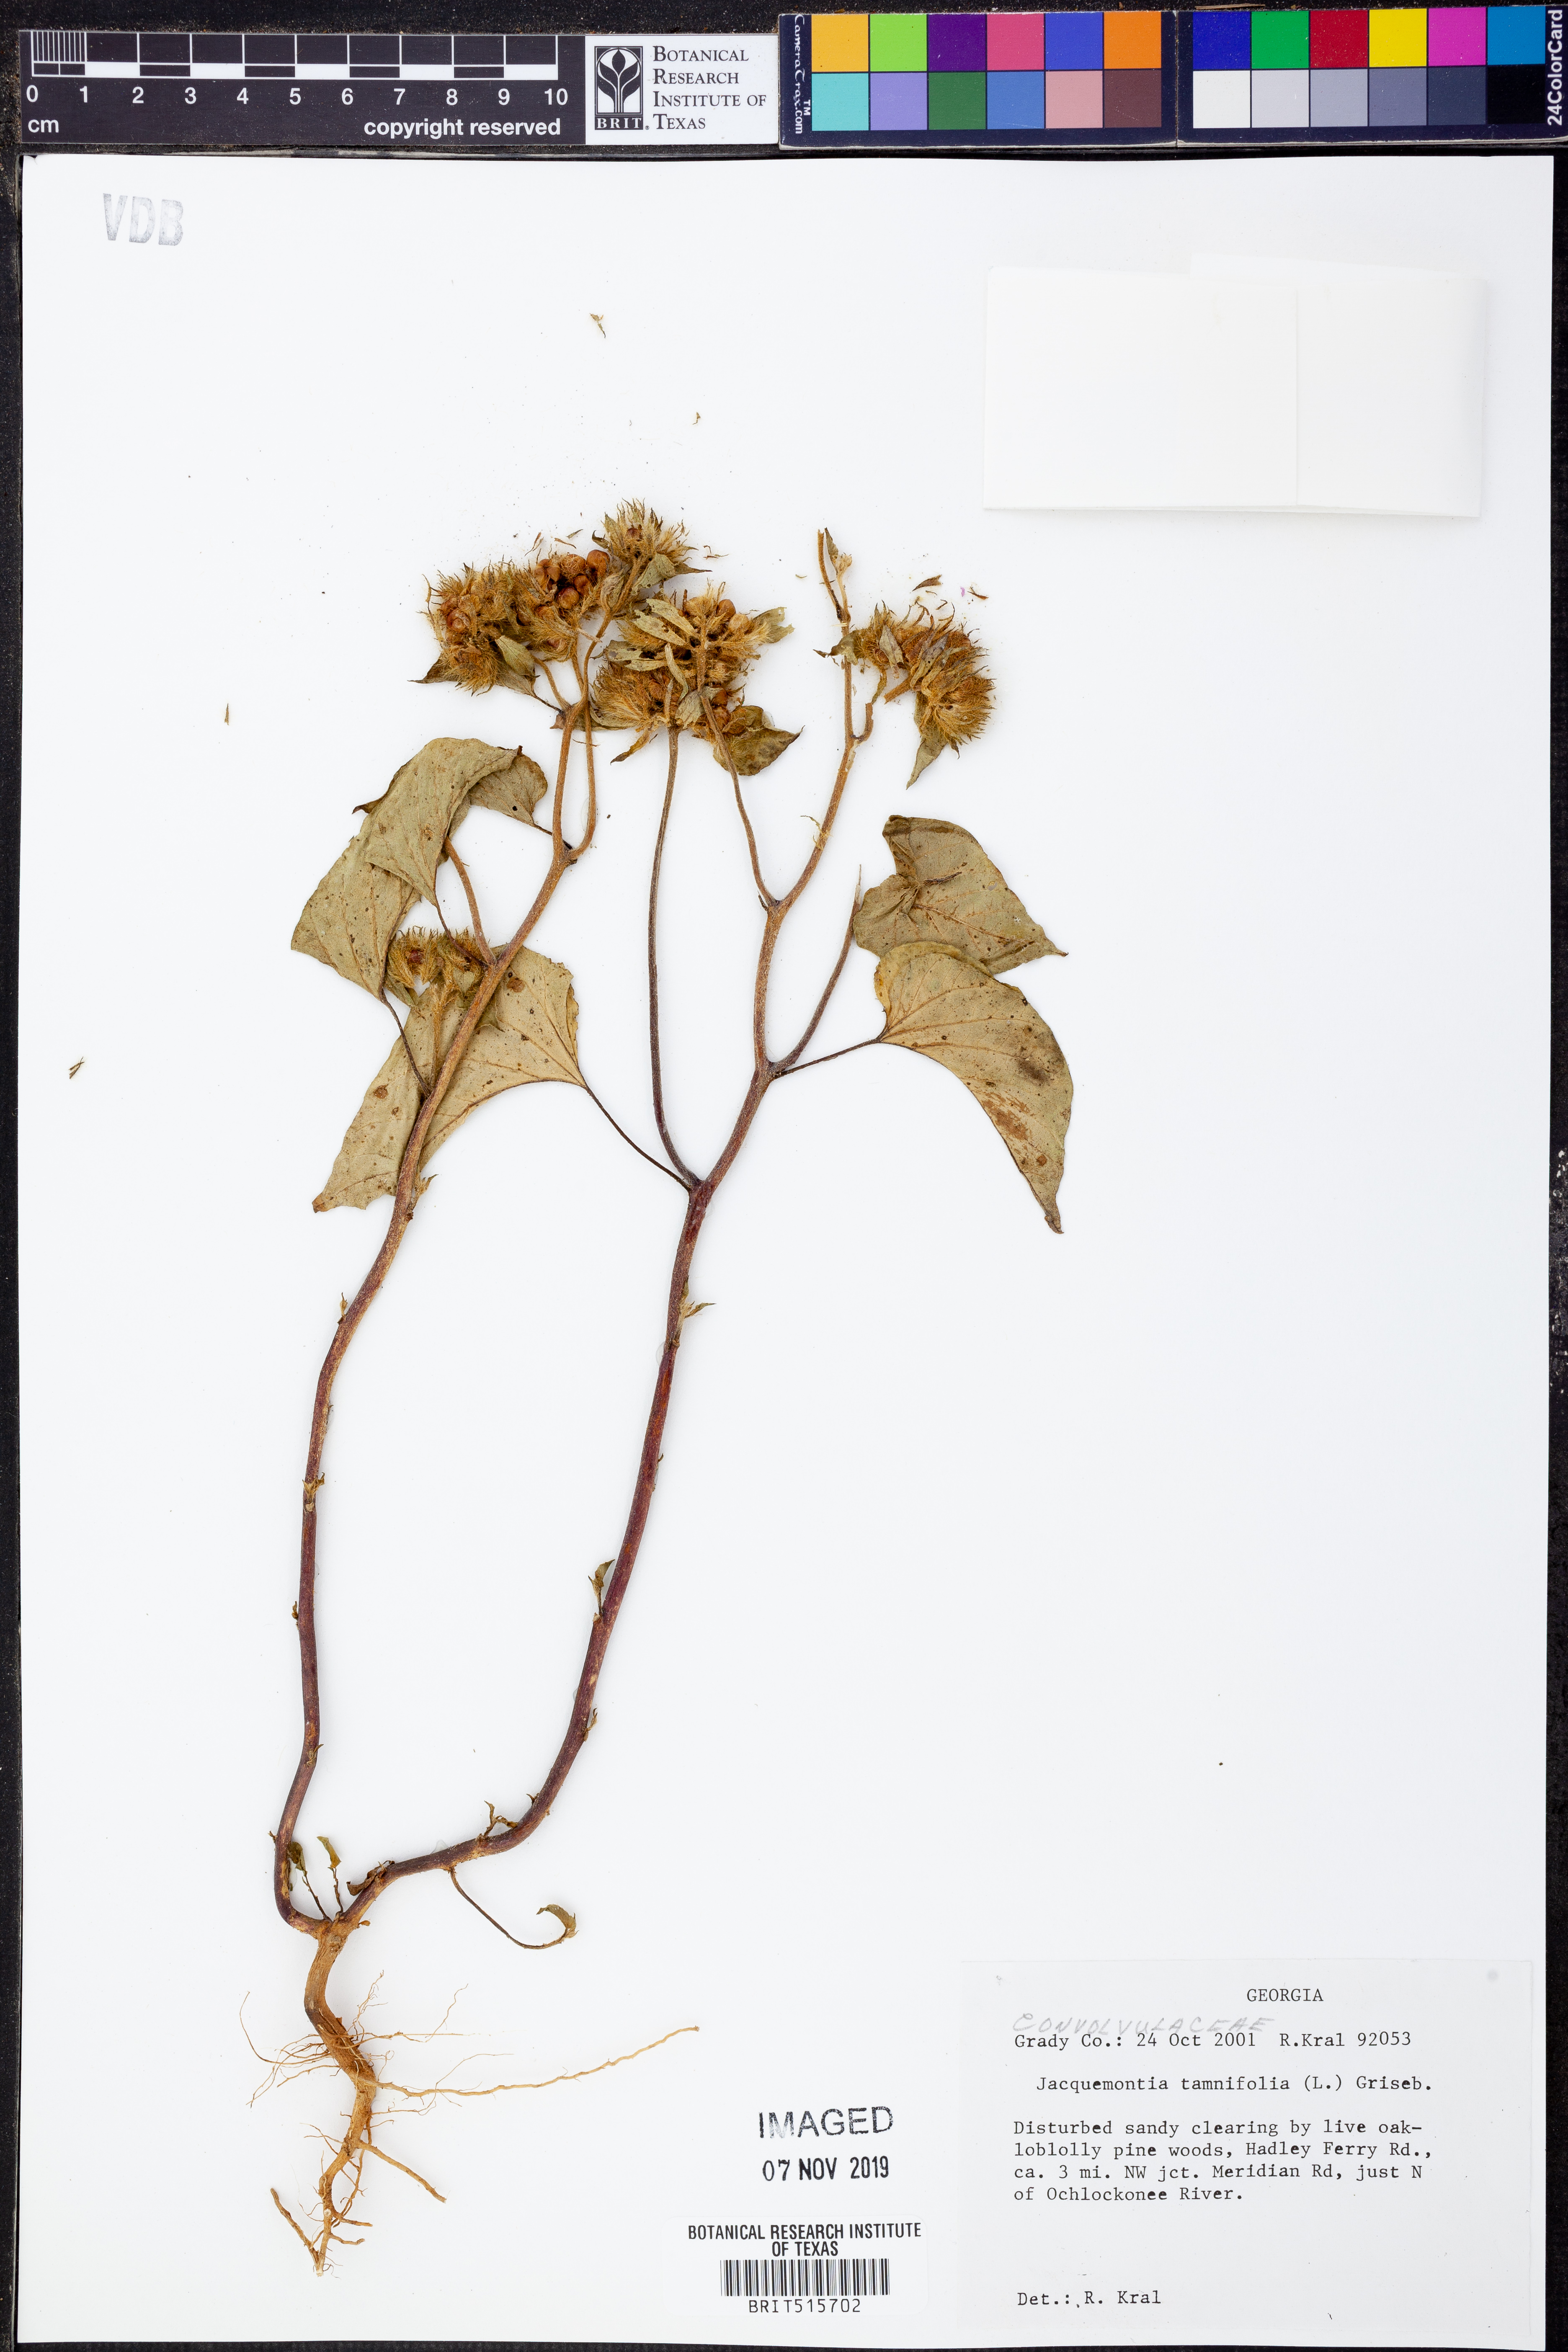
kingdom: Plantae
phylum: Tracheophyta
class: Magnoliopsida
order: Solanales
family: Convolvulaceae
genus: Jacquemontia
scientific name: Jacquemontia tamnifolia
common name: Hairy clustervine
